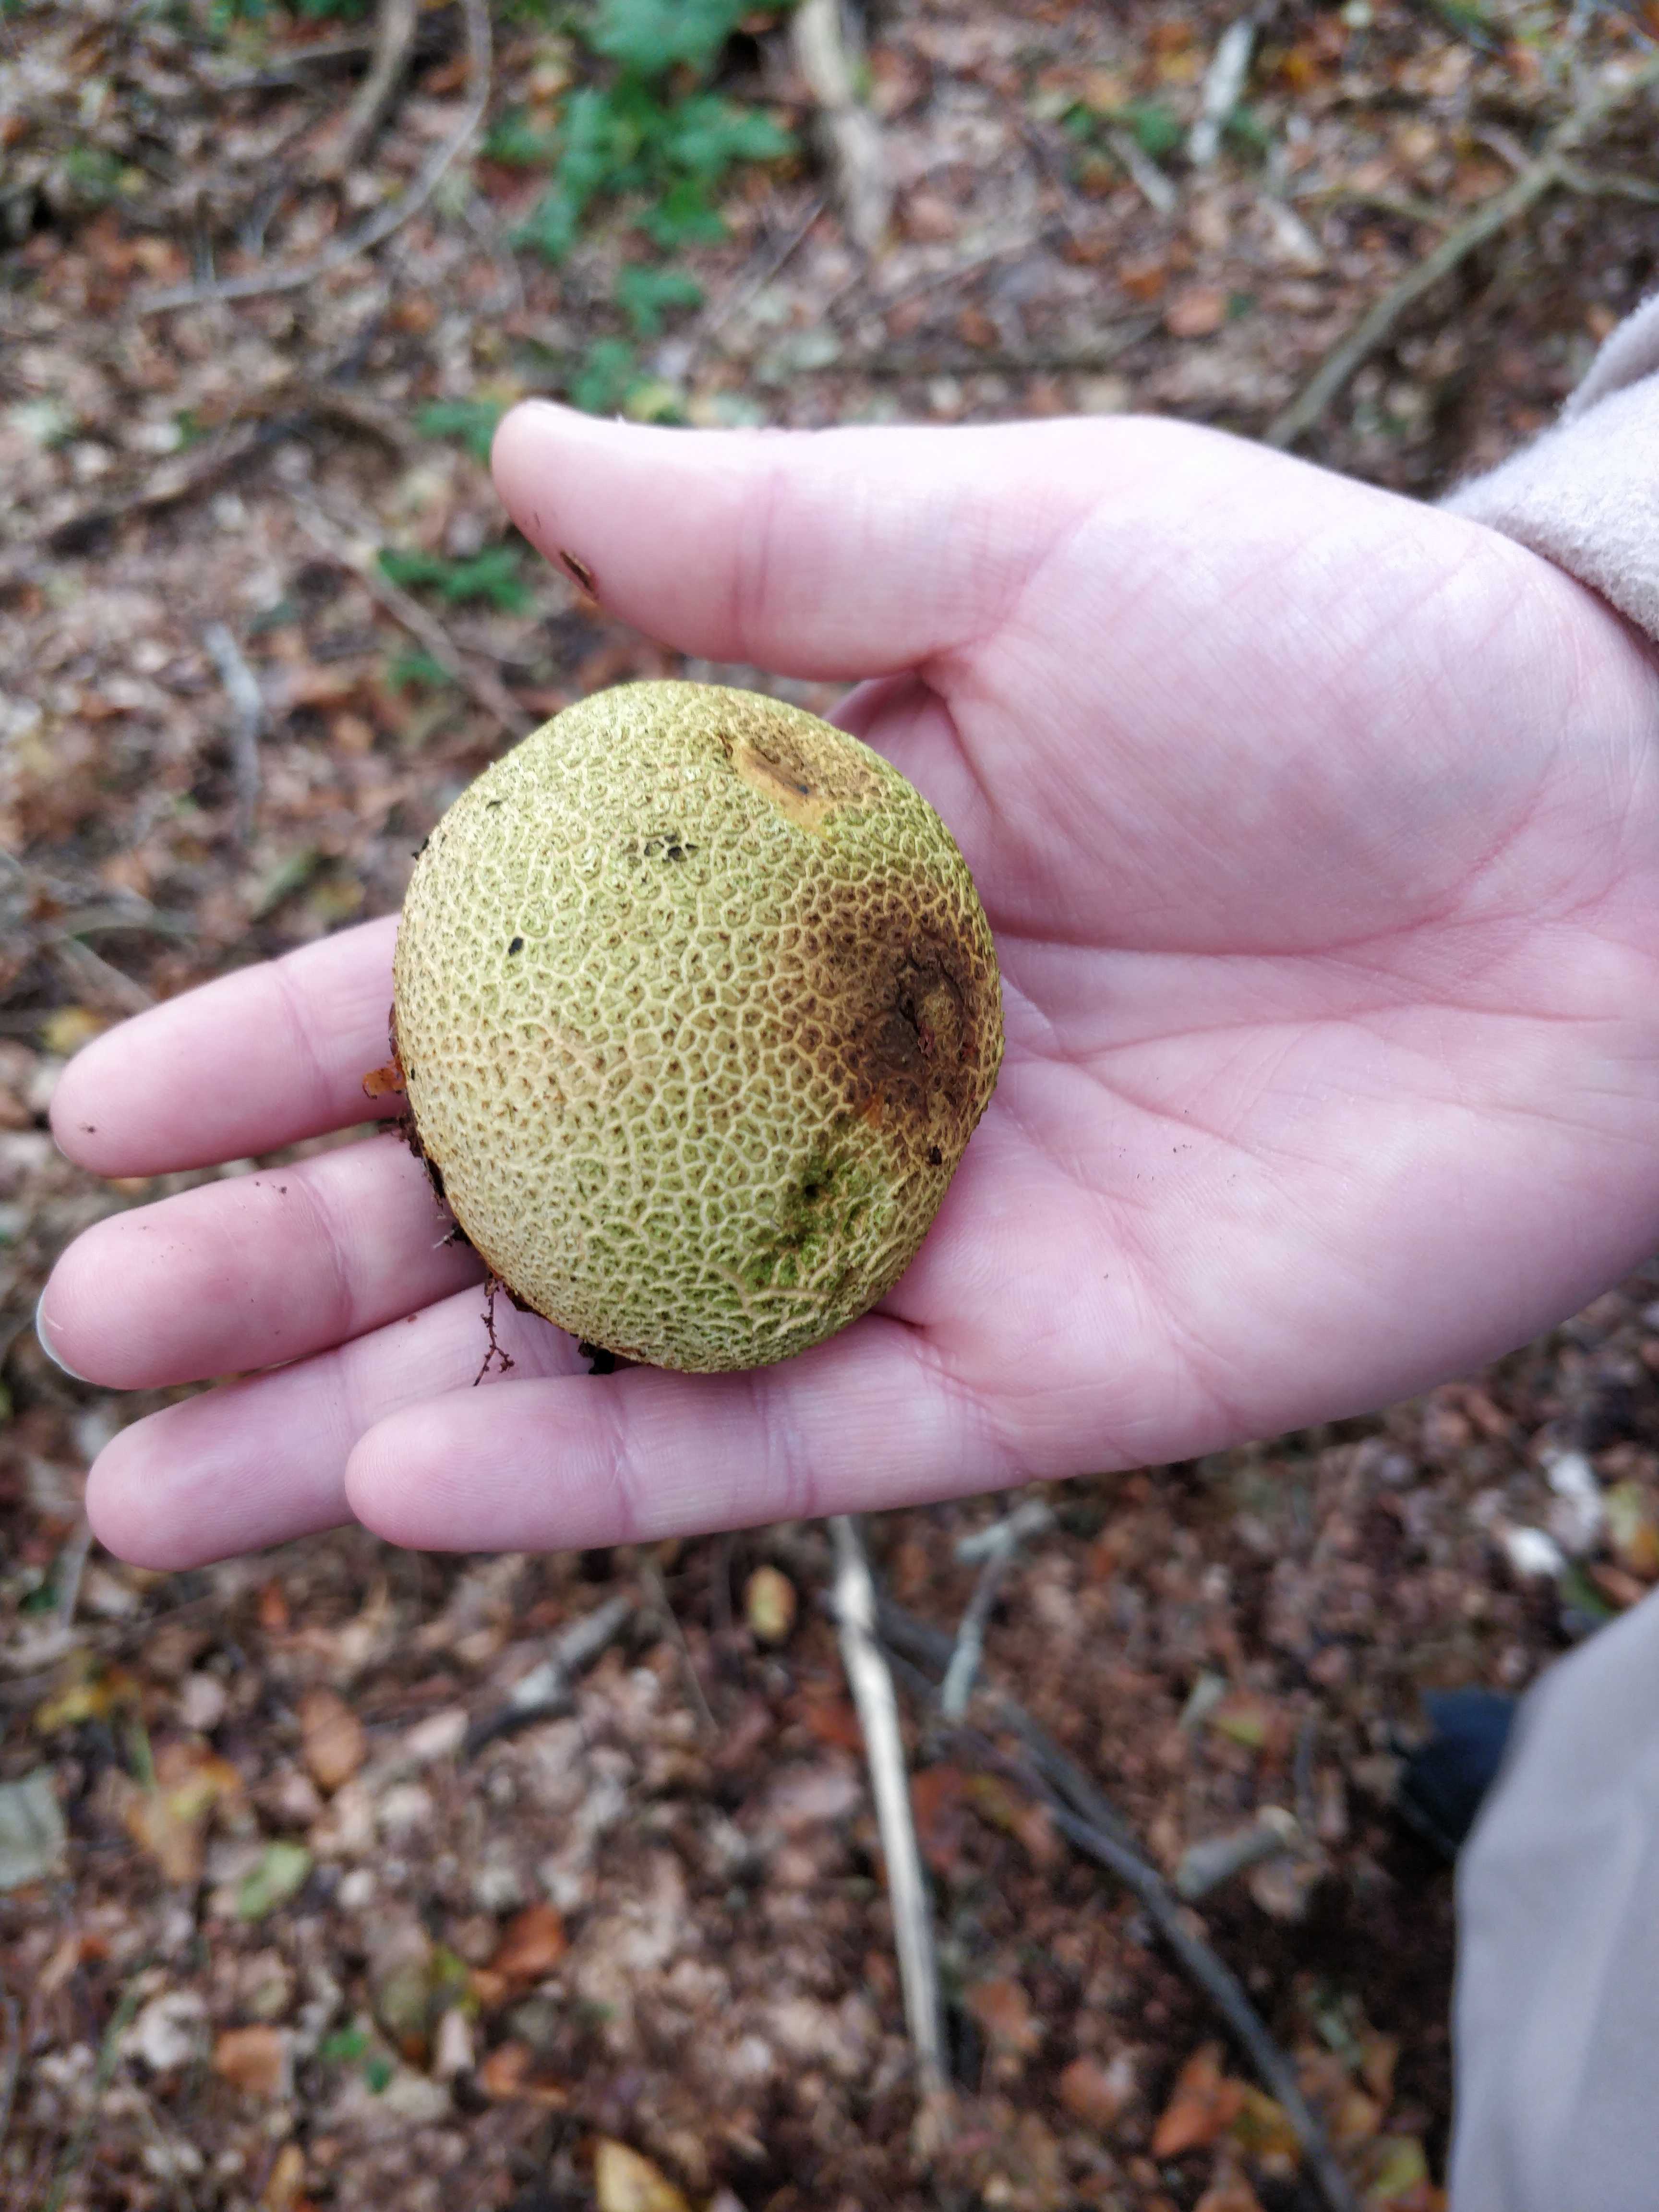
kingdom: Fungi
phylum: Basidiomycota
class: Agaricomycetes
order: Boletales
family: Sclerodermataceae
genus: Scleroderma
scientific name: Scleroderma citrinum
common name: almindelig bruskbold
